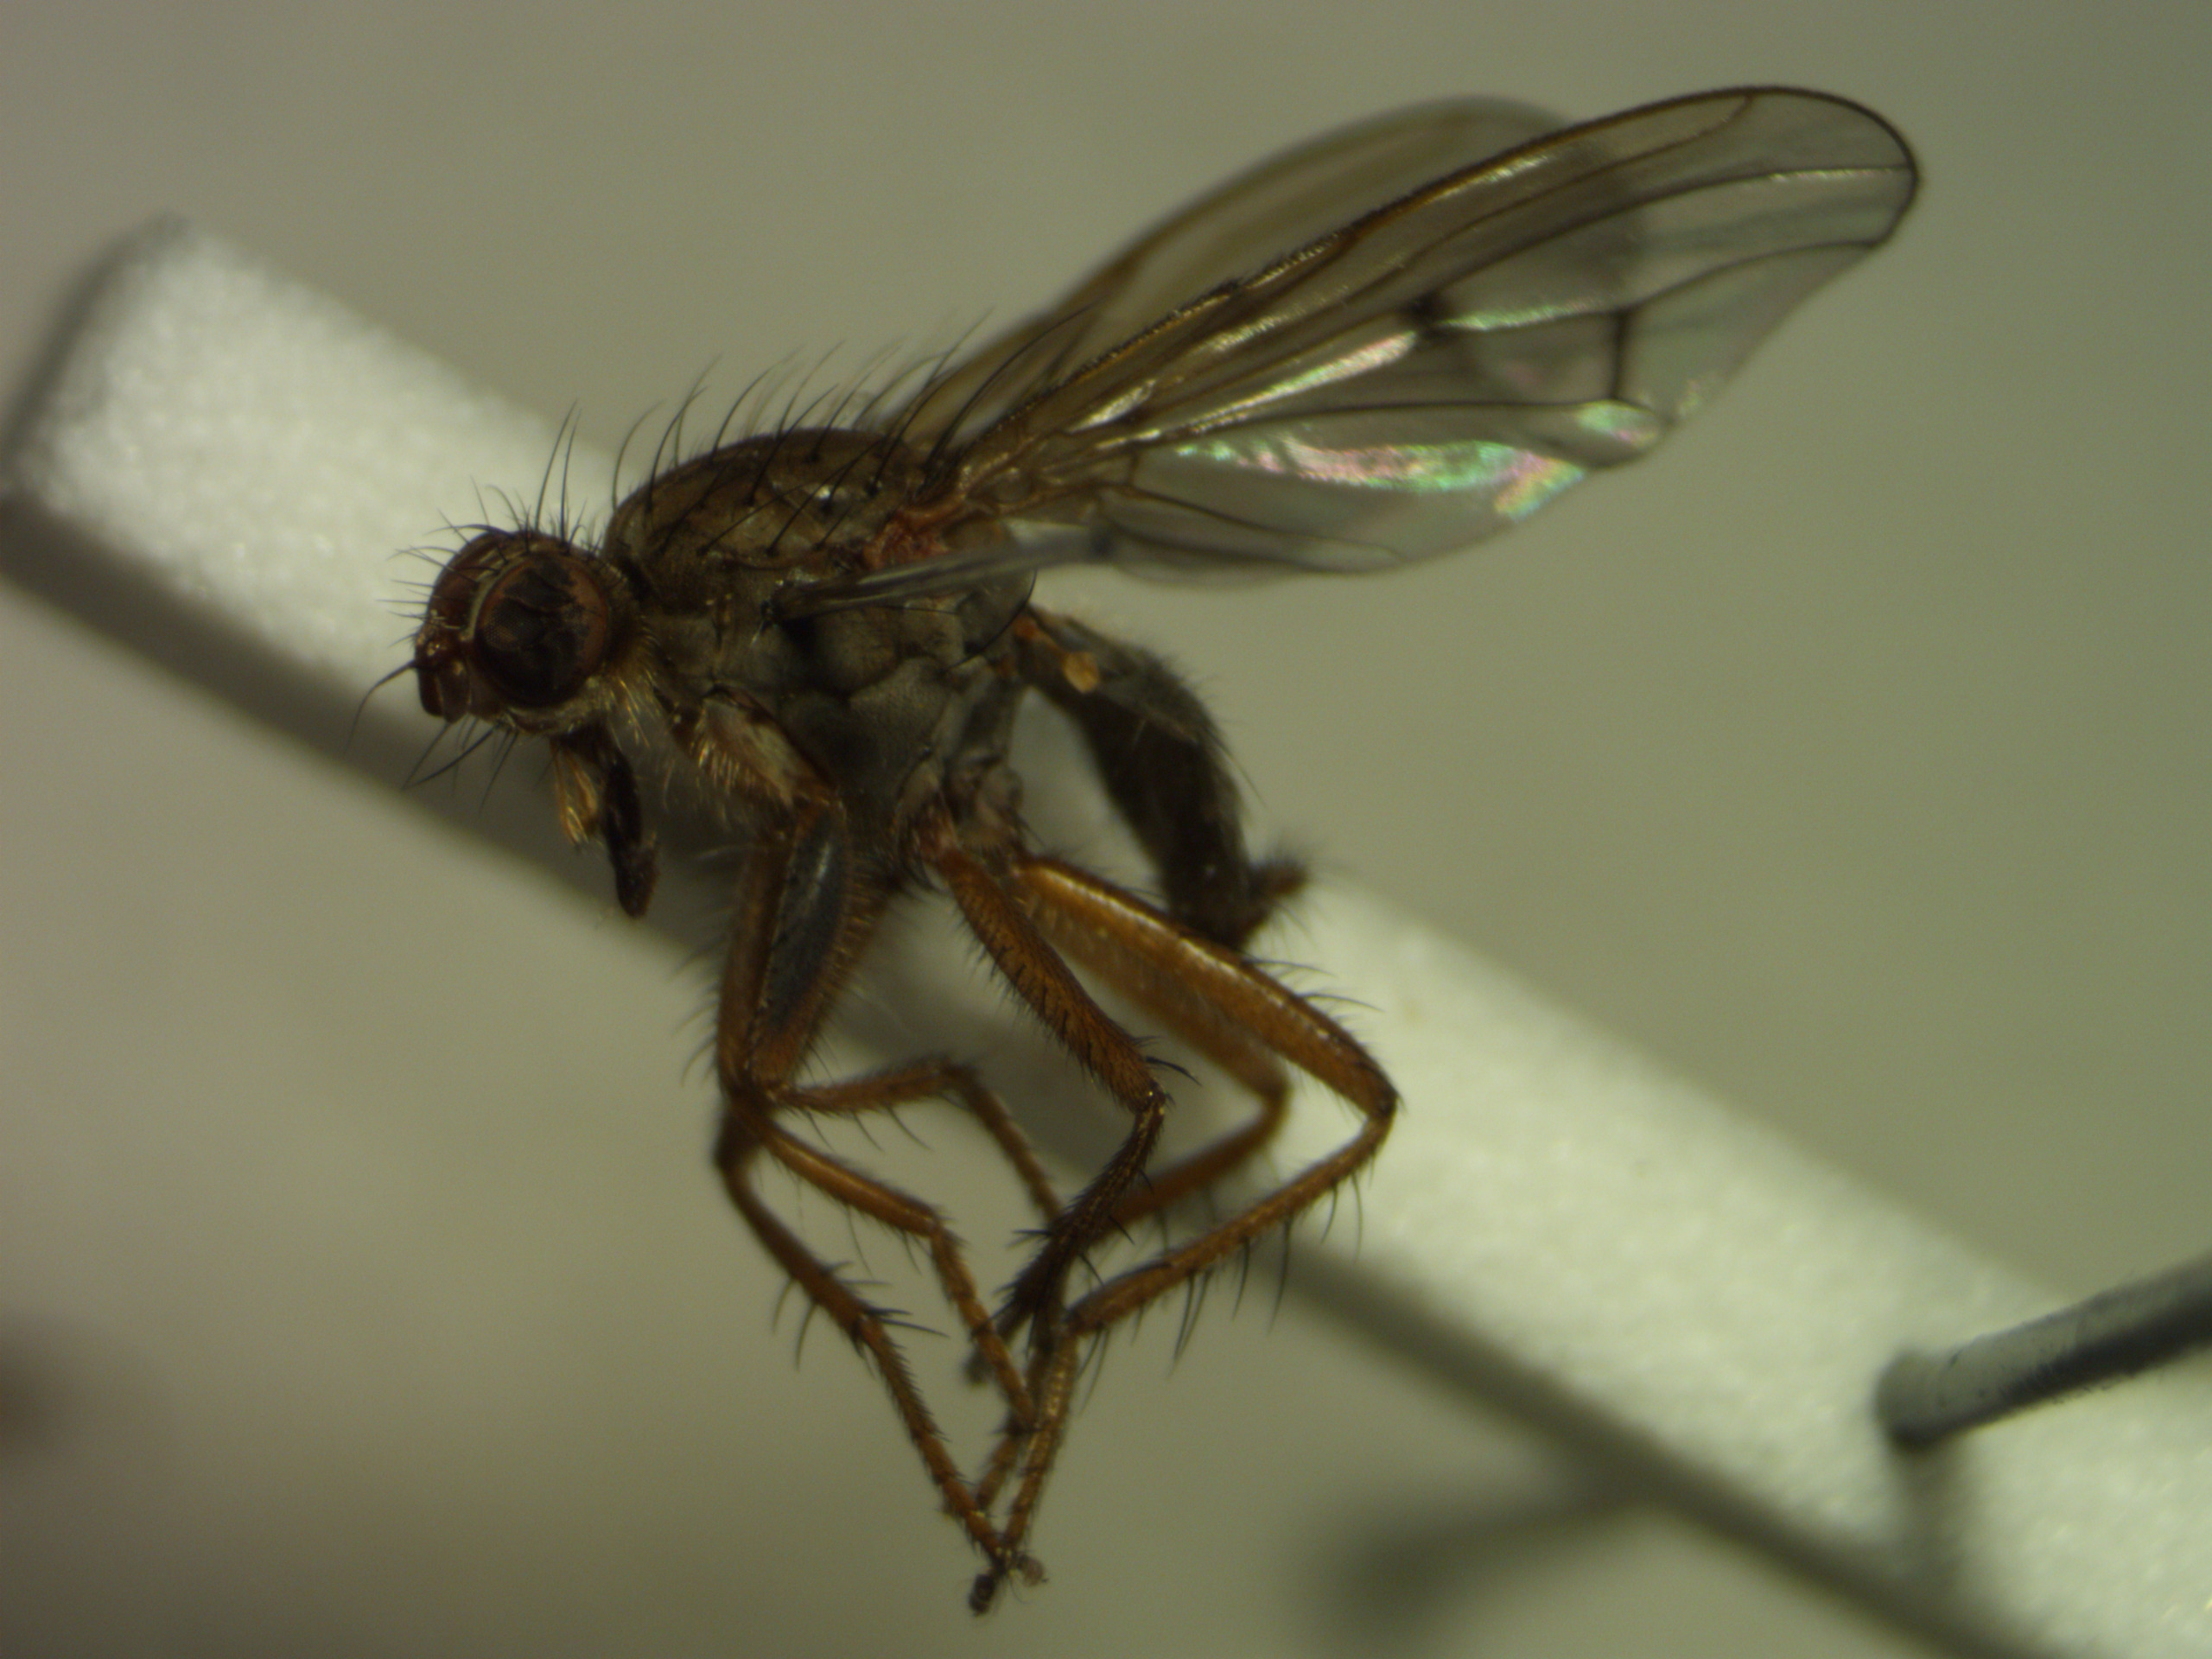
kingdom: Animalia
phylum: Arthropoda
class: Insecta
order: Diptera
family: Scathophagidae
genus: Scathophaga
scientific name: Scathophaga furcata
